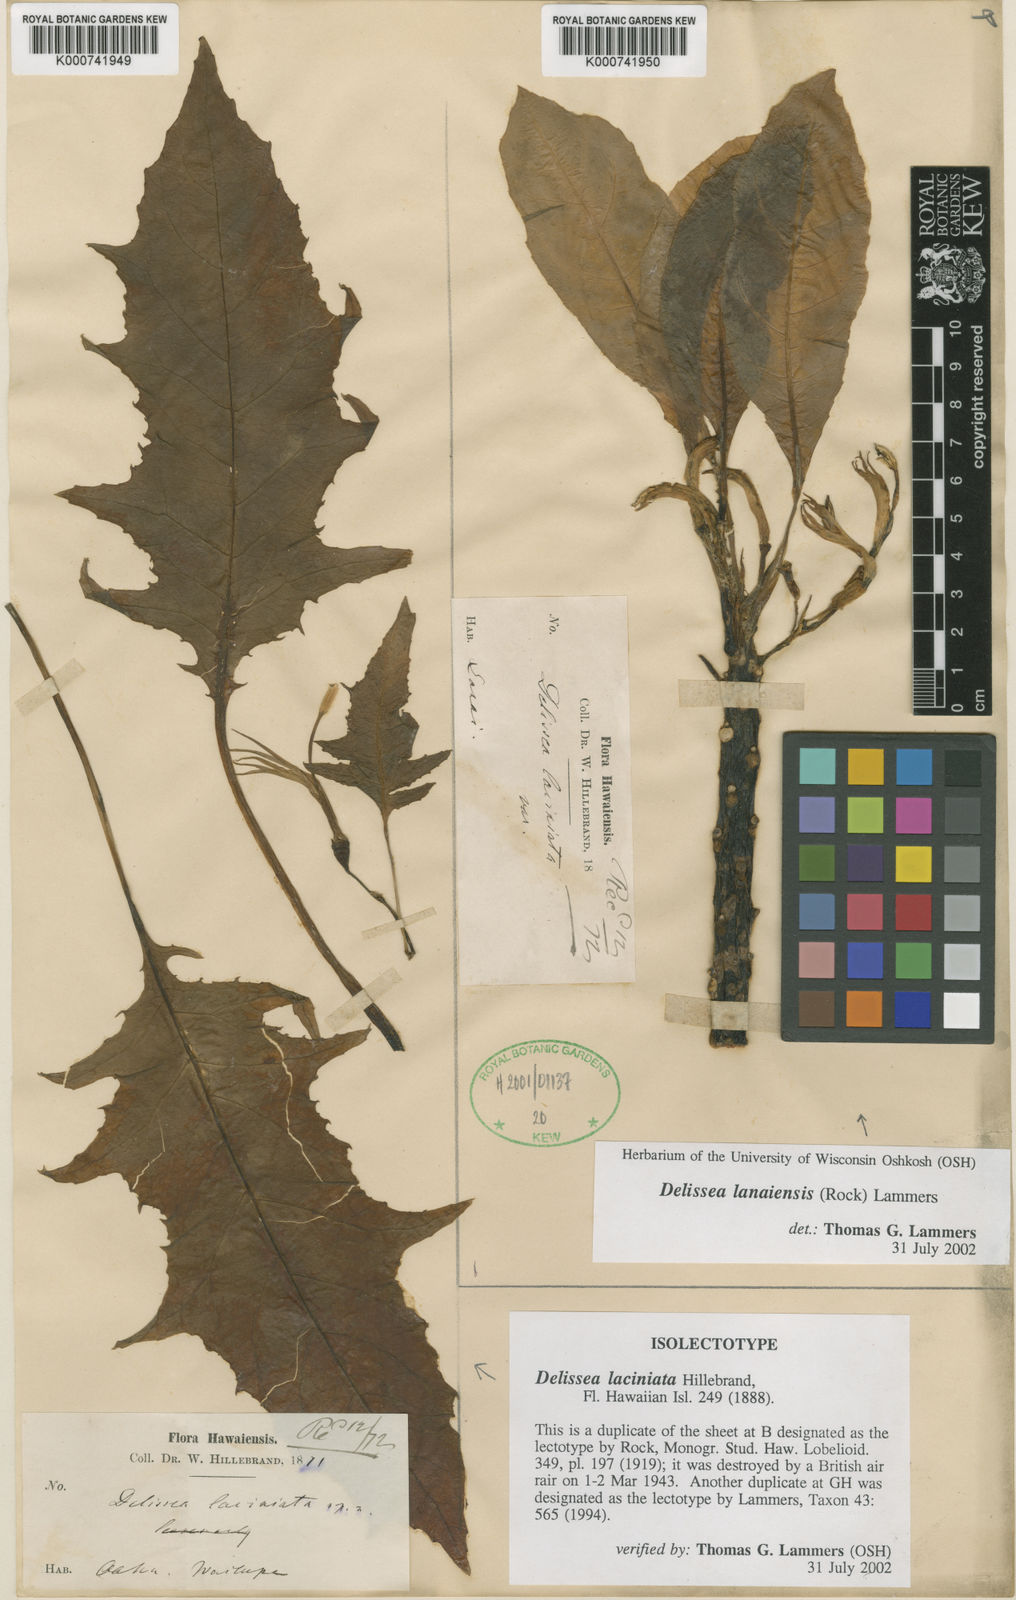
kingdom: Plantae
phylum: Tracheophyta
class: Magnoliopsida
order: Asterales
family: Campanulaceae
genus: Delissea
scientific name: Delissea laciniata
